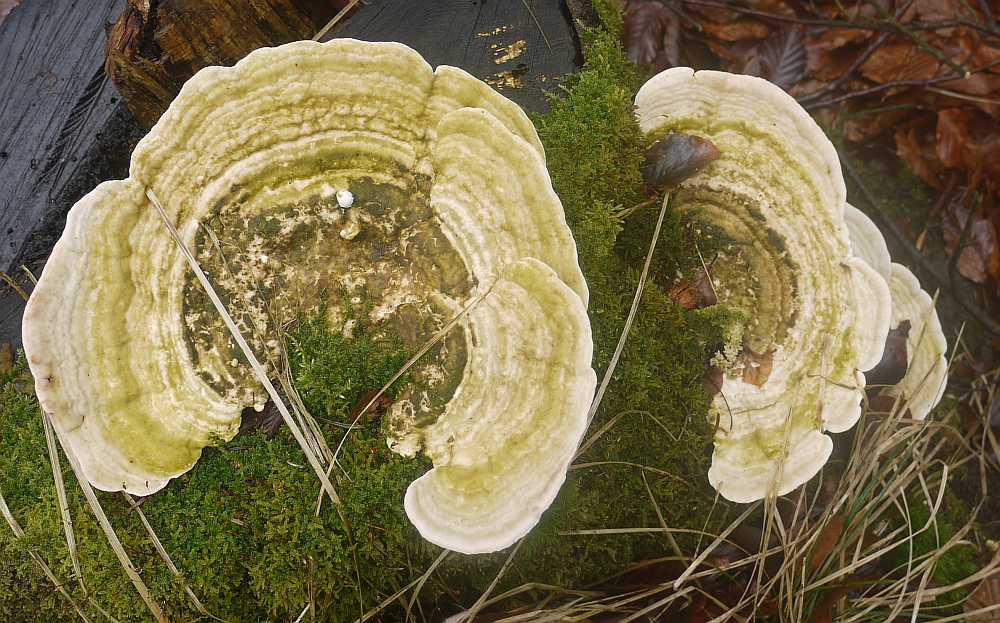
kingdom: Fungi
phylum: Basidiomycota
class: Agaricomycetes
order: Polyporales
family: Polyporaceae
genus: Trametes
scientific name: Trametes gibbosa
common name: puklet læderporesvamp
